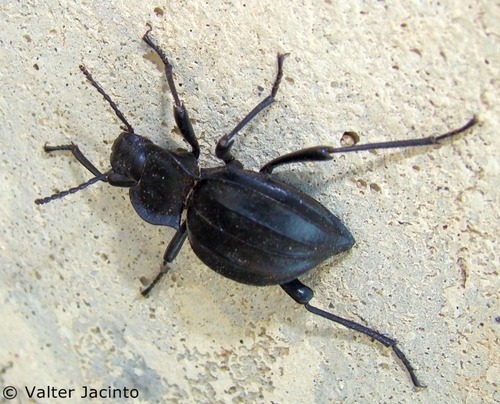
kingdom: Animalia
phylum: Arthropoda
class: Insecta
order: Coleoptera
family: Tenebrionidae
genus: Akis
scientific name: Akis granulifera
